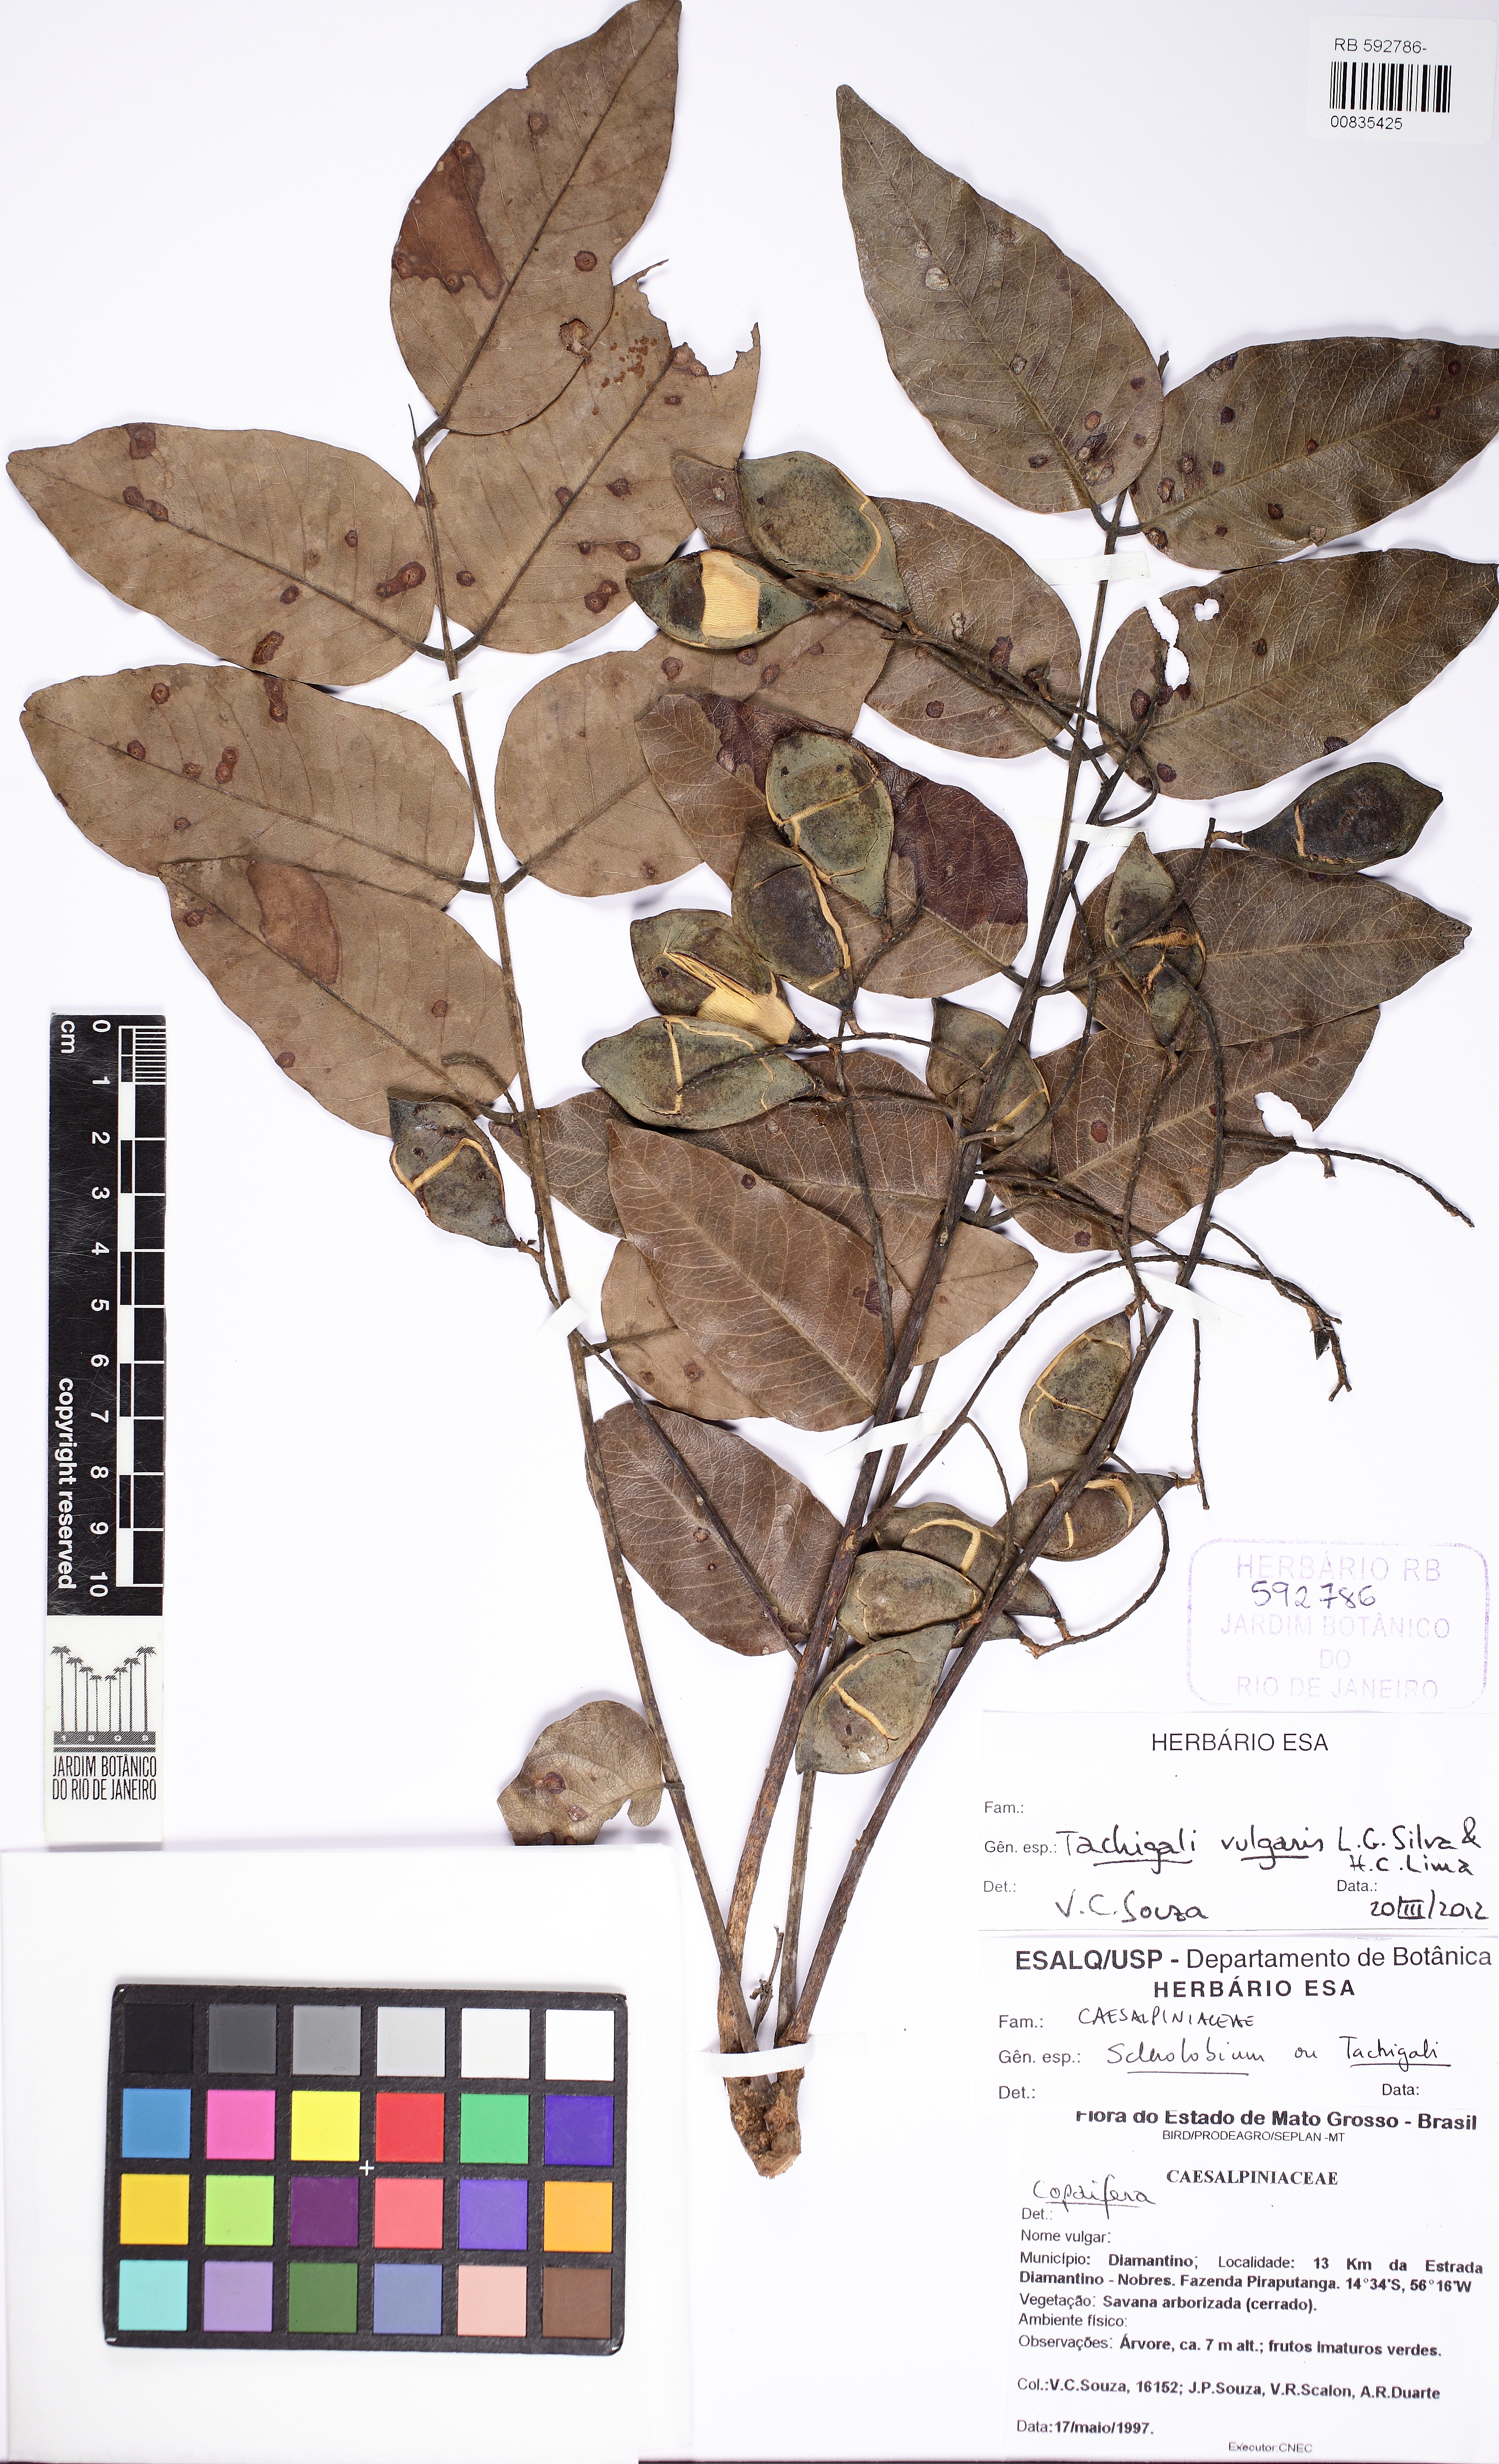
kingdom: Plantae
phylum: Tracheophyta
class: Magnoliopsida
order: Fabales
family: Fabaceae
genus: Tachigali
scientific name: Tachigali vulgaris
